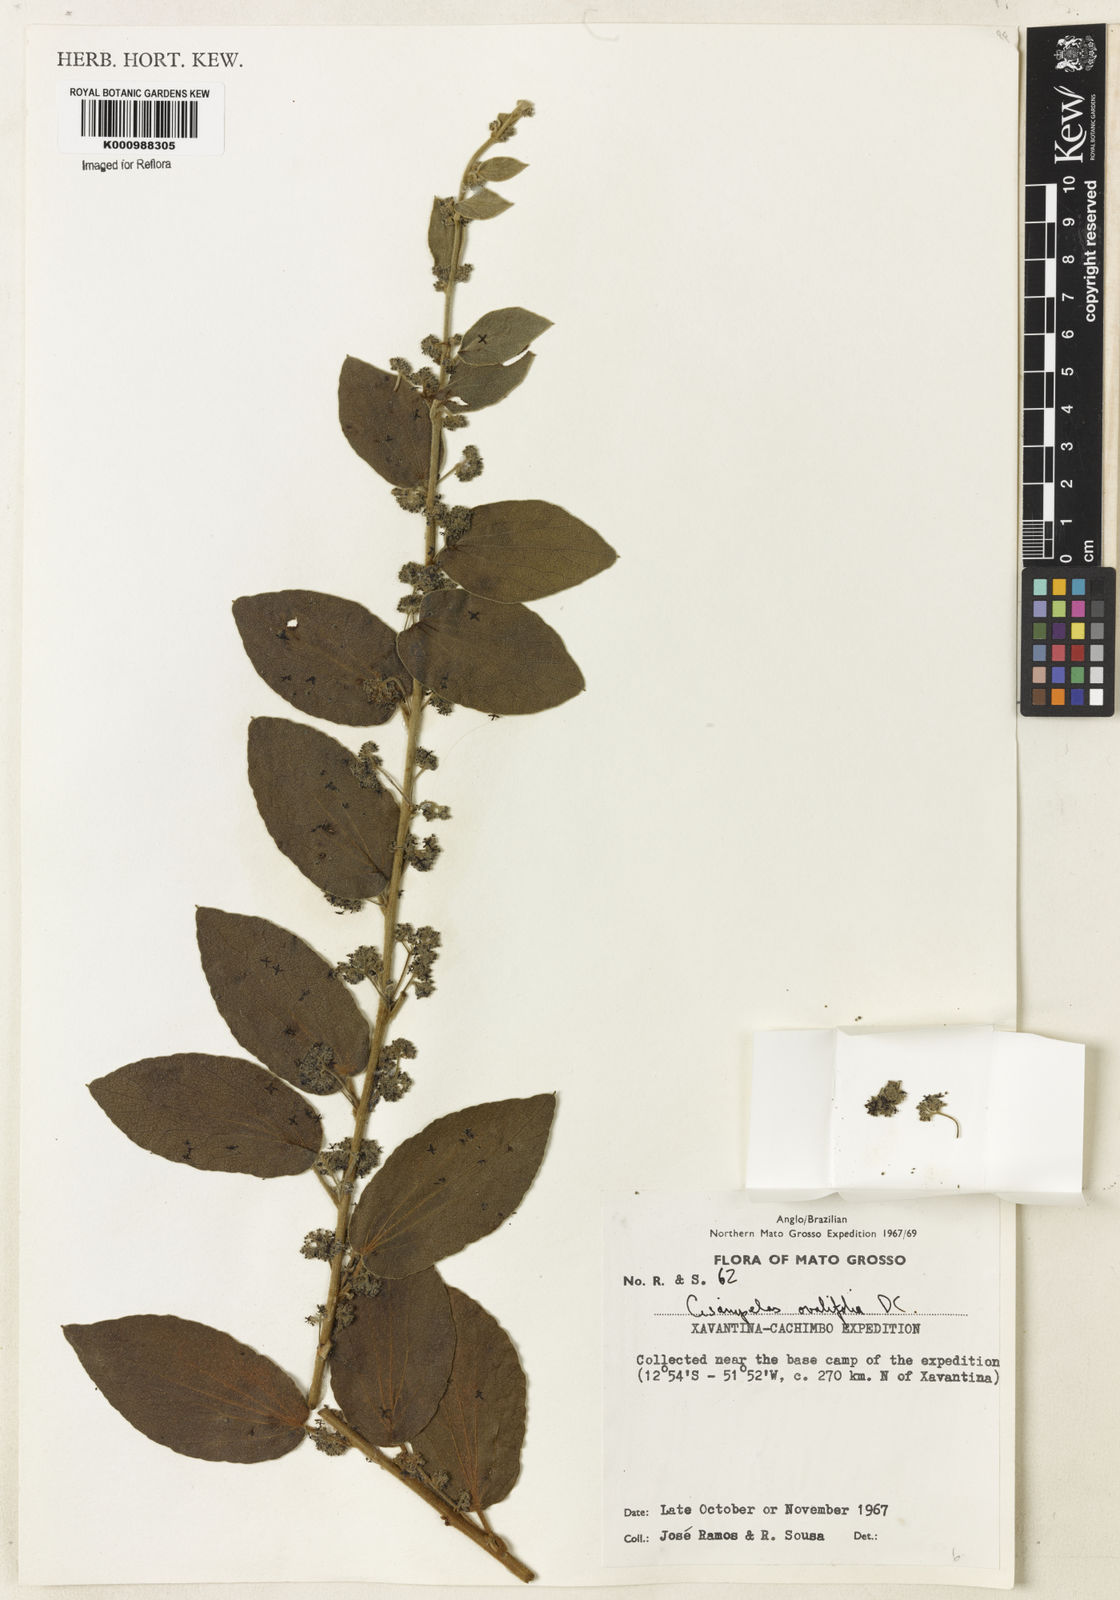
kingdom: Plantae
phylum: Tracheophyta
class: Magnoliopsida
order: Ranunculales
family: Menispermaceae
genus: Cissampelos
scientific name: Cissampelos ovalifolia
